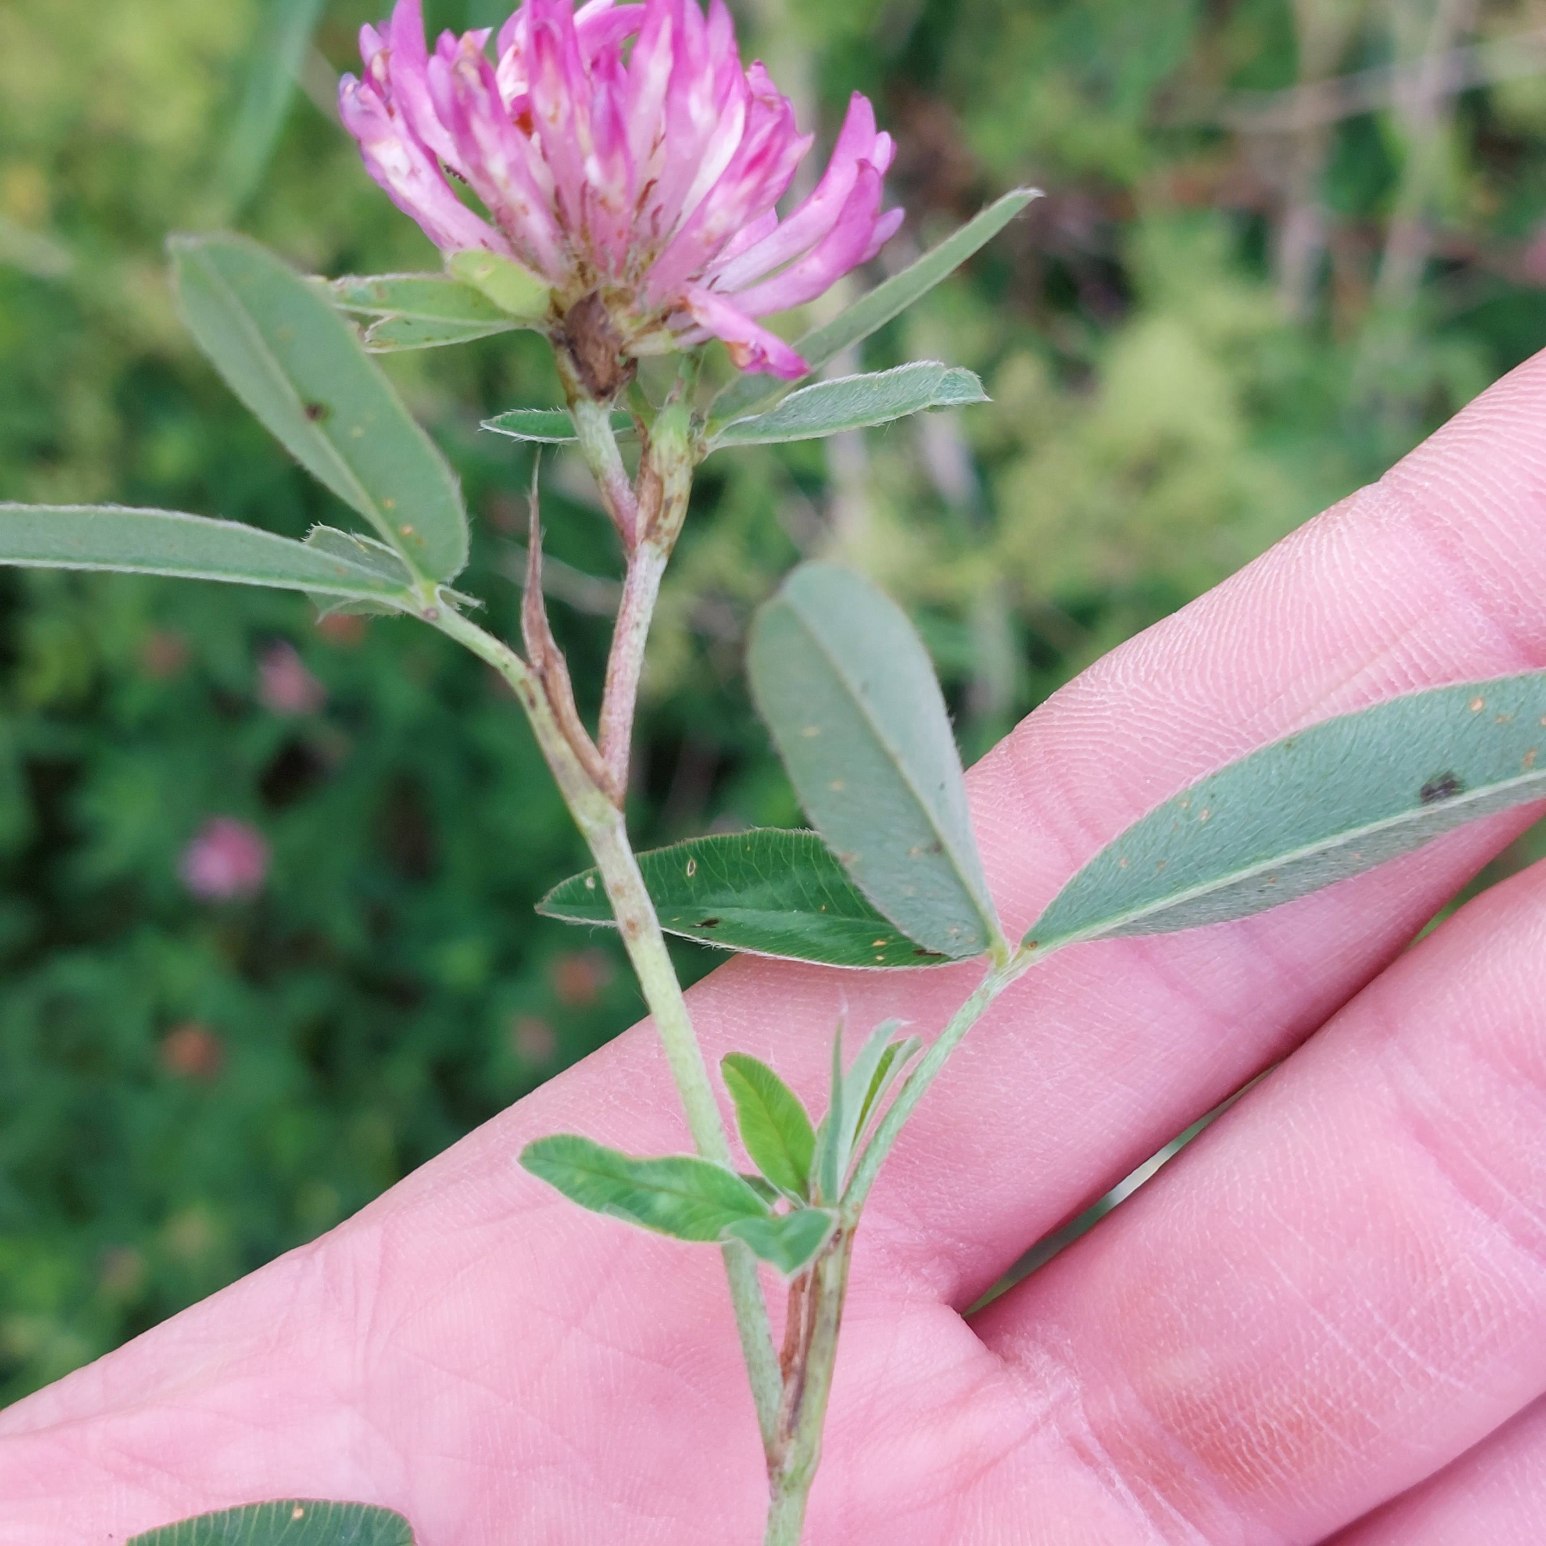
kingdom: Plantae
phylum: Tracheophyta
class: Magnoliopsida
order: Fabales
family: Fabaceae
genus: Trifolium
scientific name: Trifolium medium
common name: Bugtet kløver
